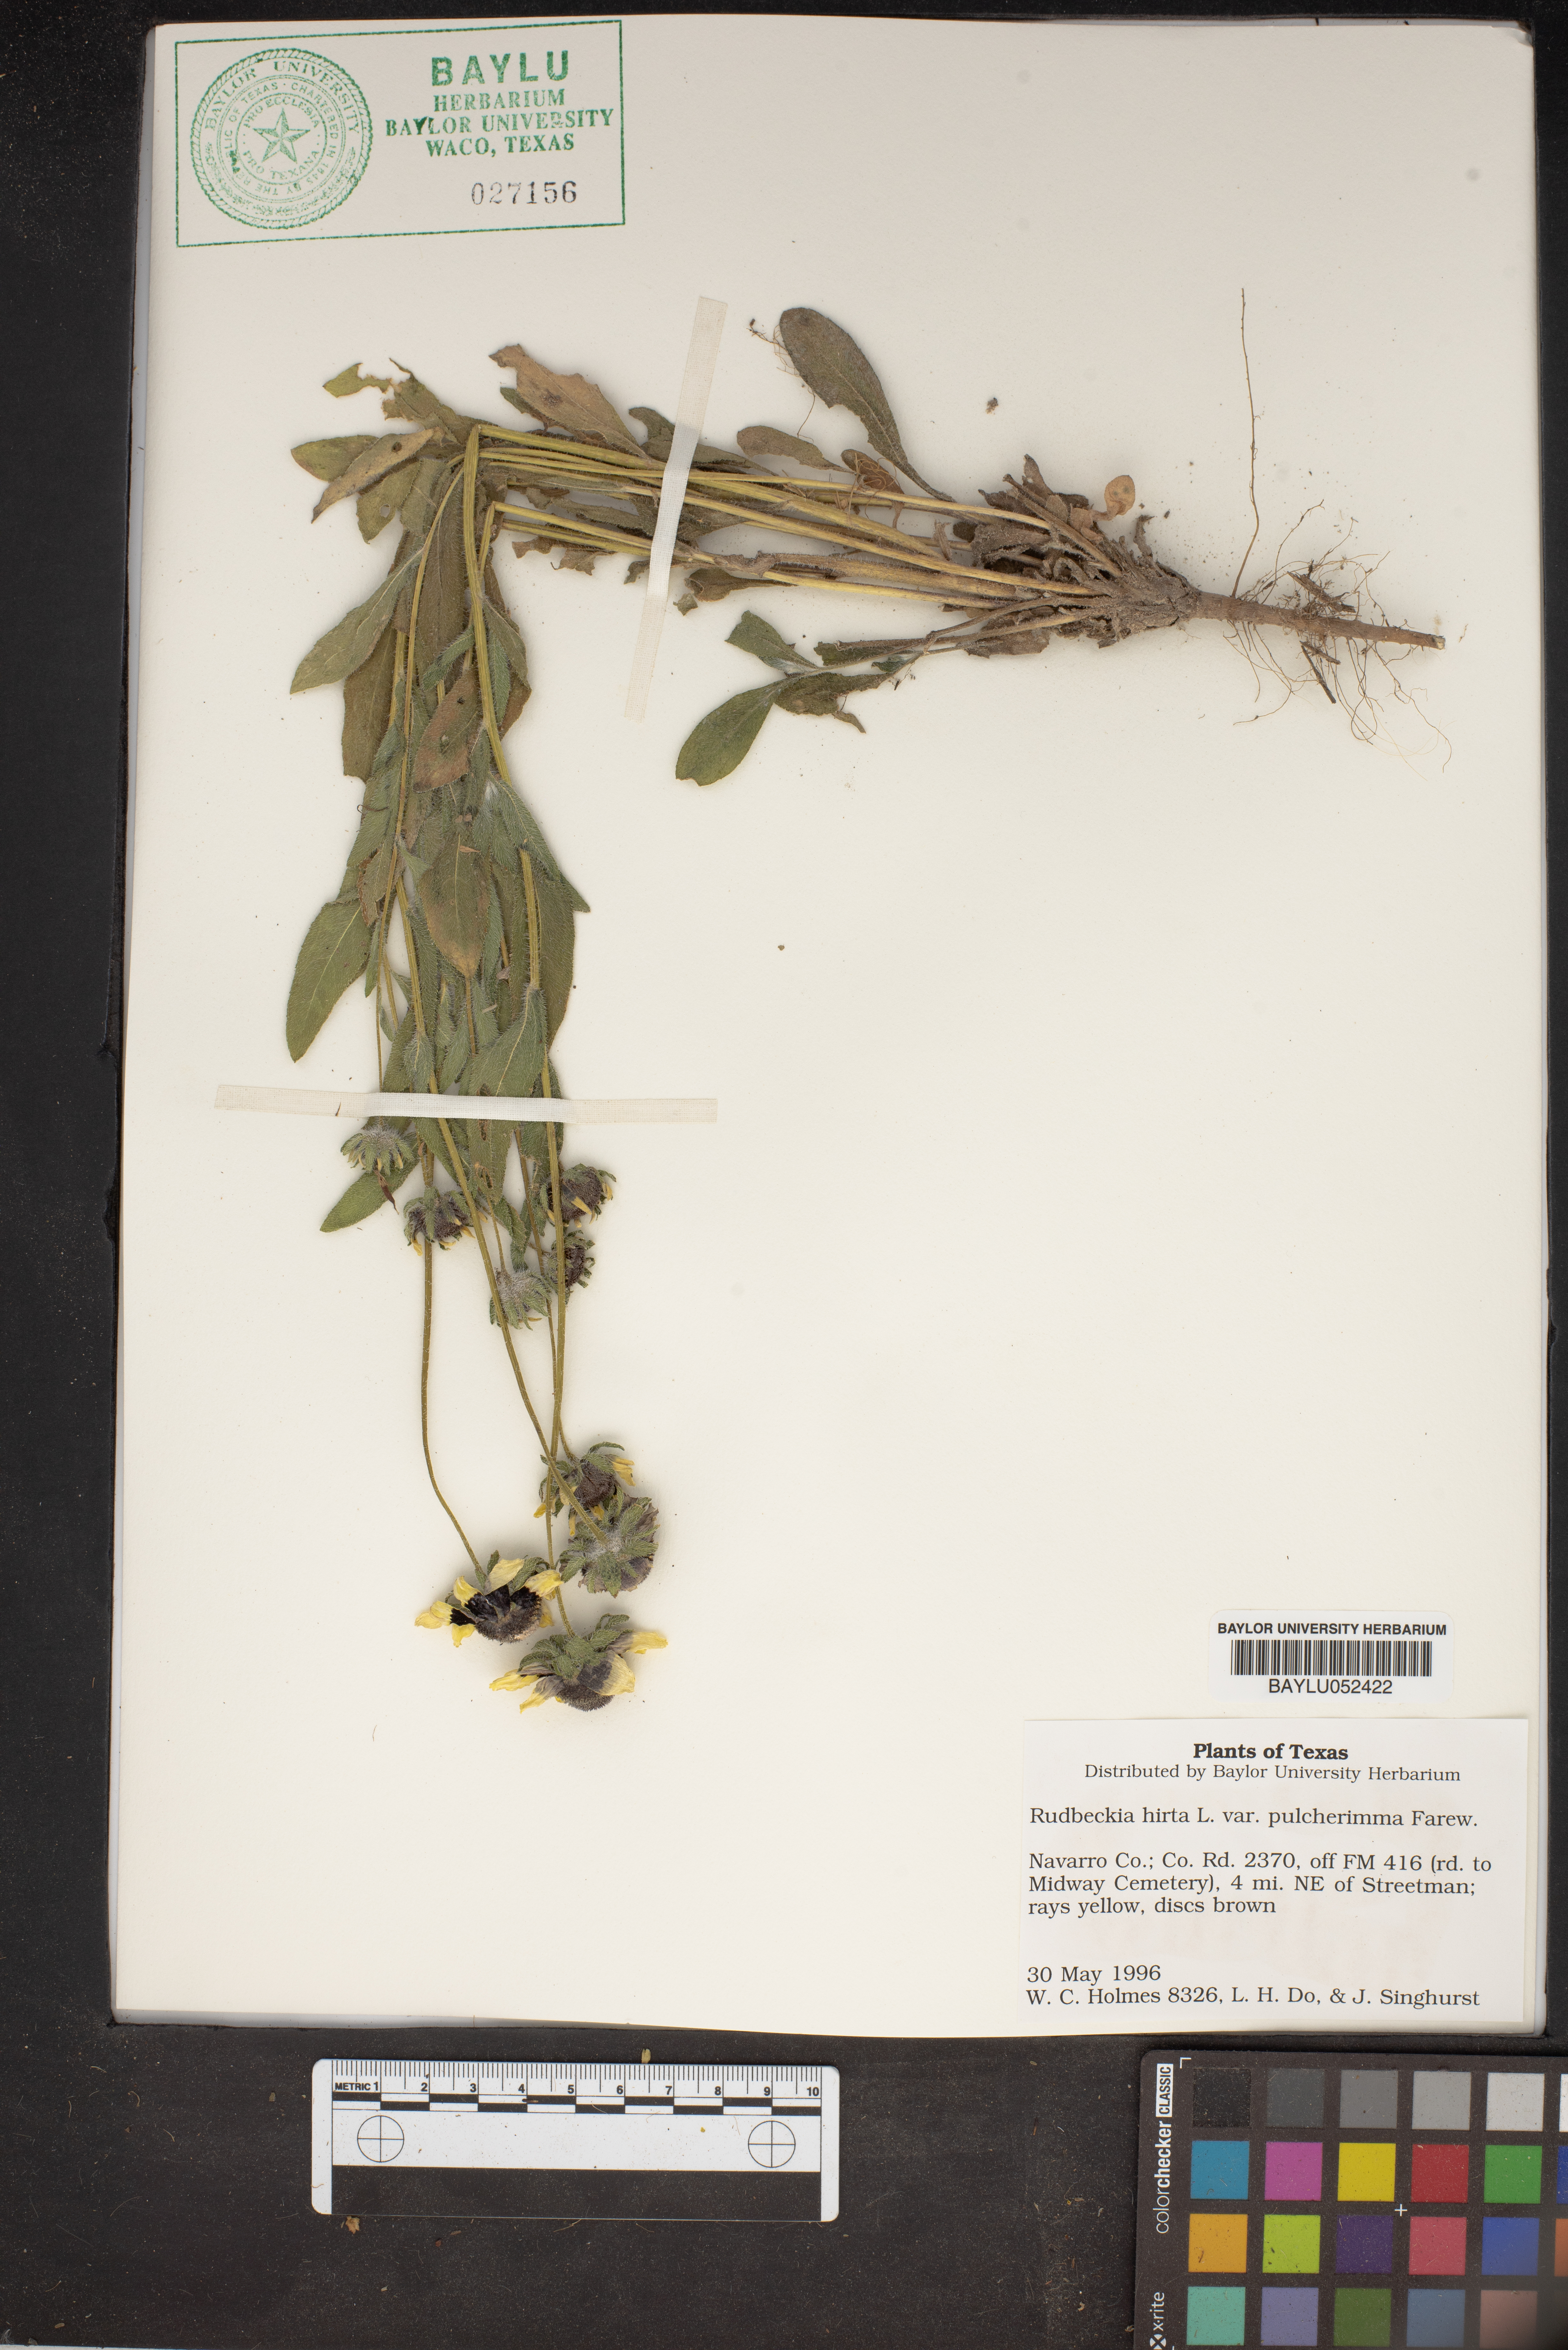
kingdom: Plantae
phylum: Tracheophyta
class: Magnoliopsida
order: Asterales
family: Asteraceae
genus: Rudbeckia
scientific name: Rudbeckia hirta
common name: Black-eyed-susan
